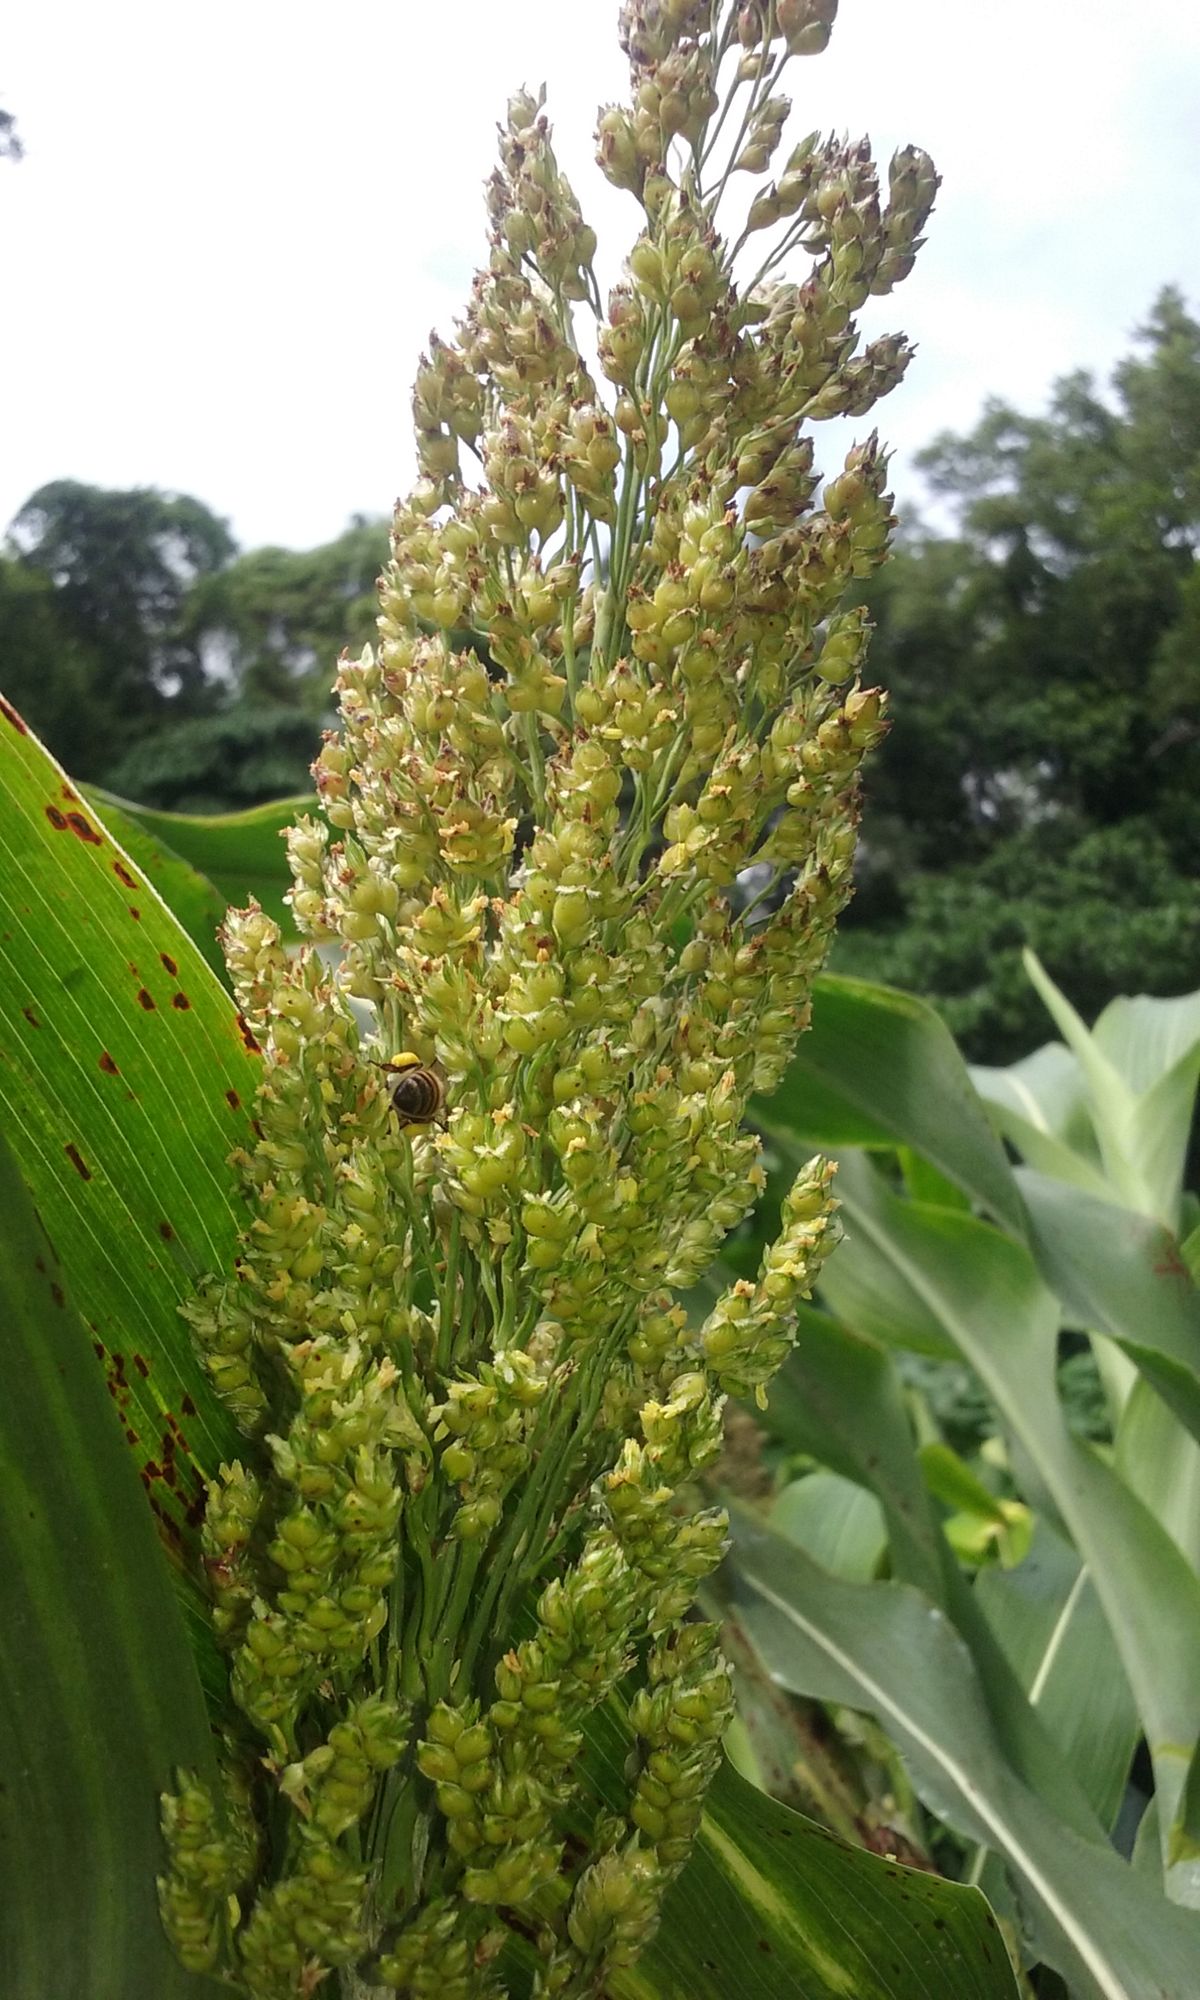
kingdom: Plantae
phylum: Tracheophyta
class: Liliopsida
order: Poales
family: Poaceae
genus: Sorghum
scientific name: Sorghum bicolor
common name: Sorghum
